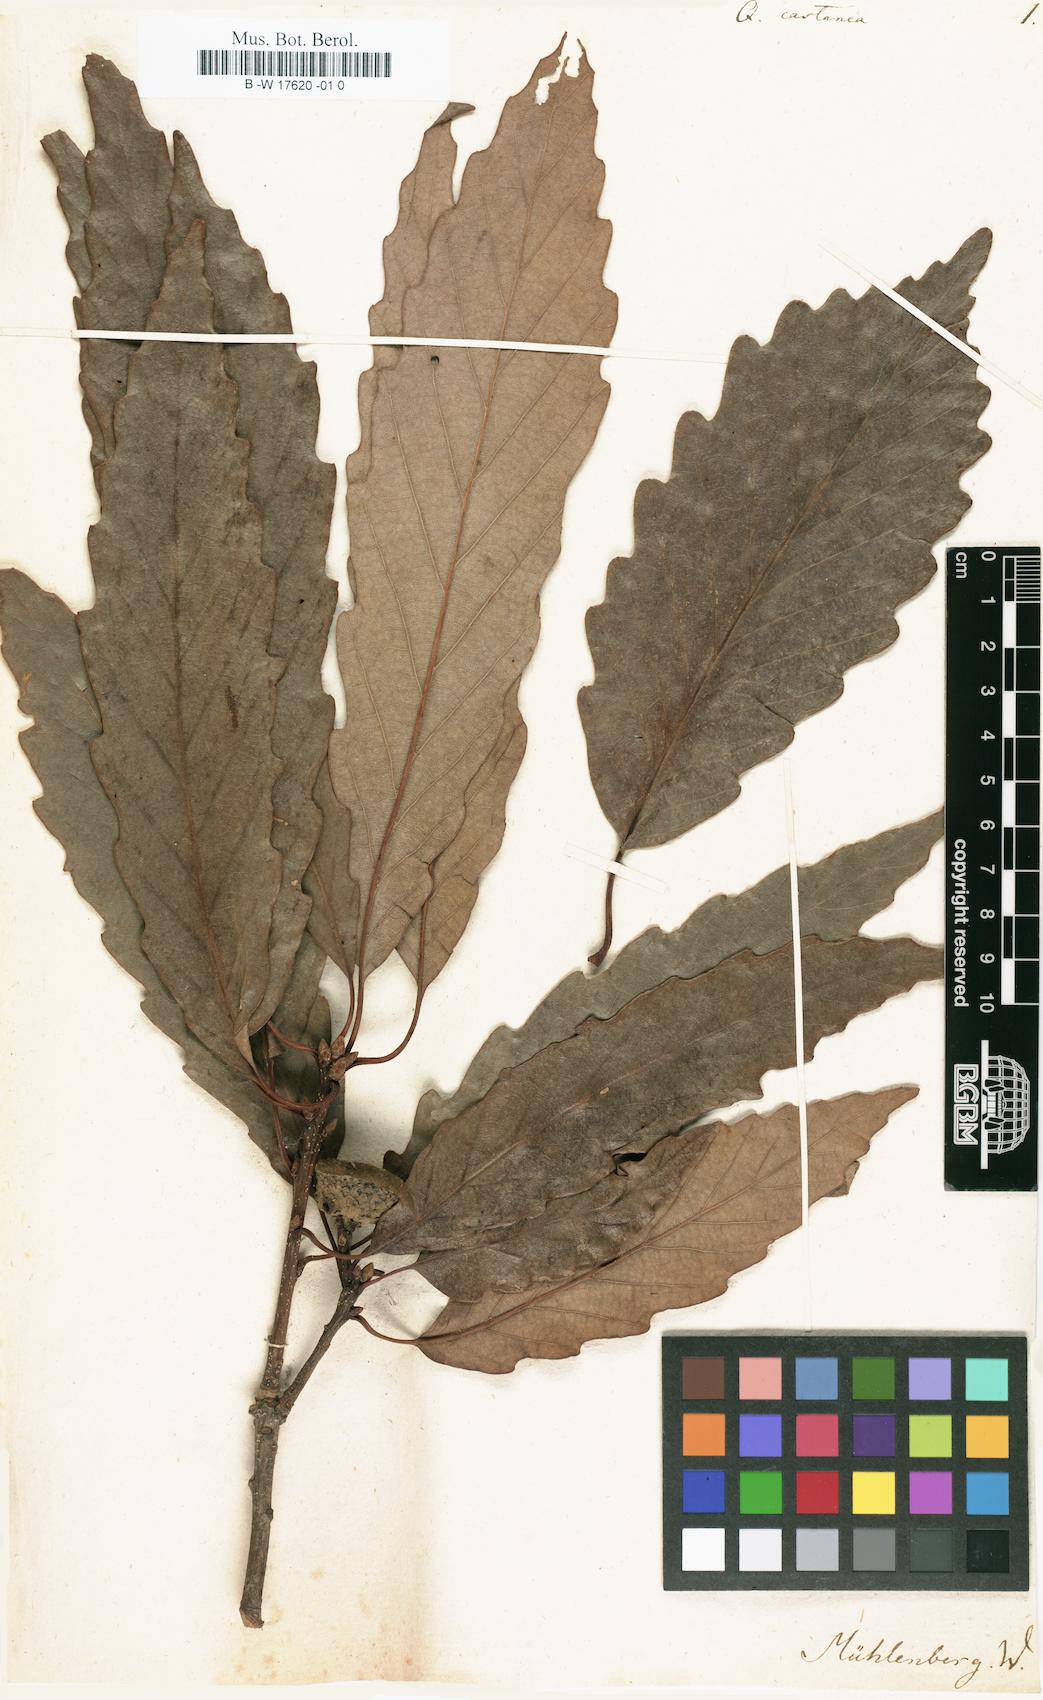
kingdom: Plantae
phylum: Tracheophyta
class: Magnoliopsida
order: Fagales
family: Fagaceae
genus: Quercus
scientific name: Quercus castanea
